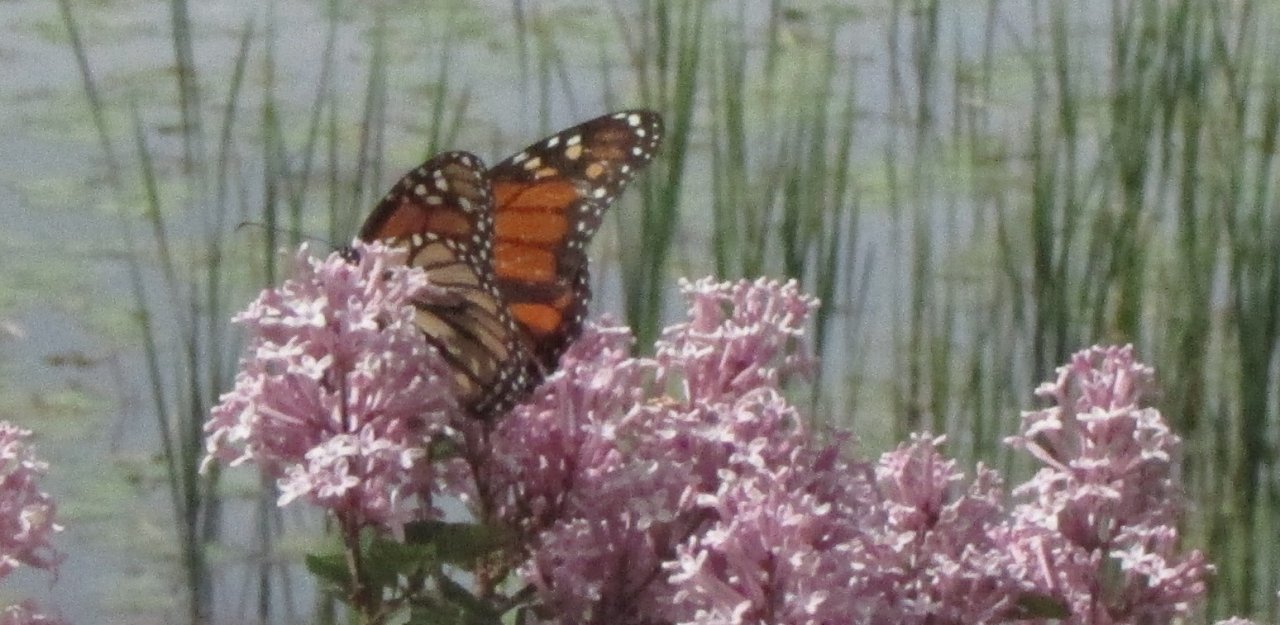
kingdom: Animalia
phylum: Arthropoda
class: Insecta
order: Lepidoptera
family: Nymphalidae
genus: Danaus
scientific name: Danaus plexippus
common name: Monarch
